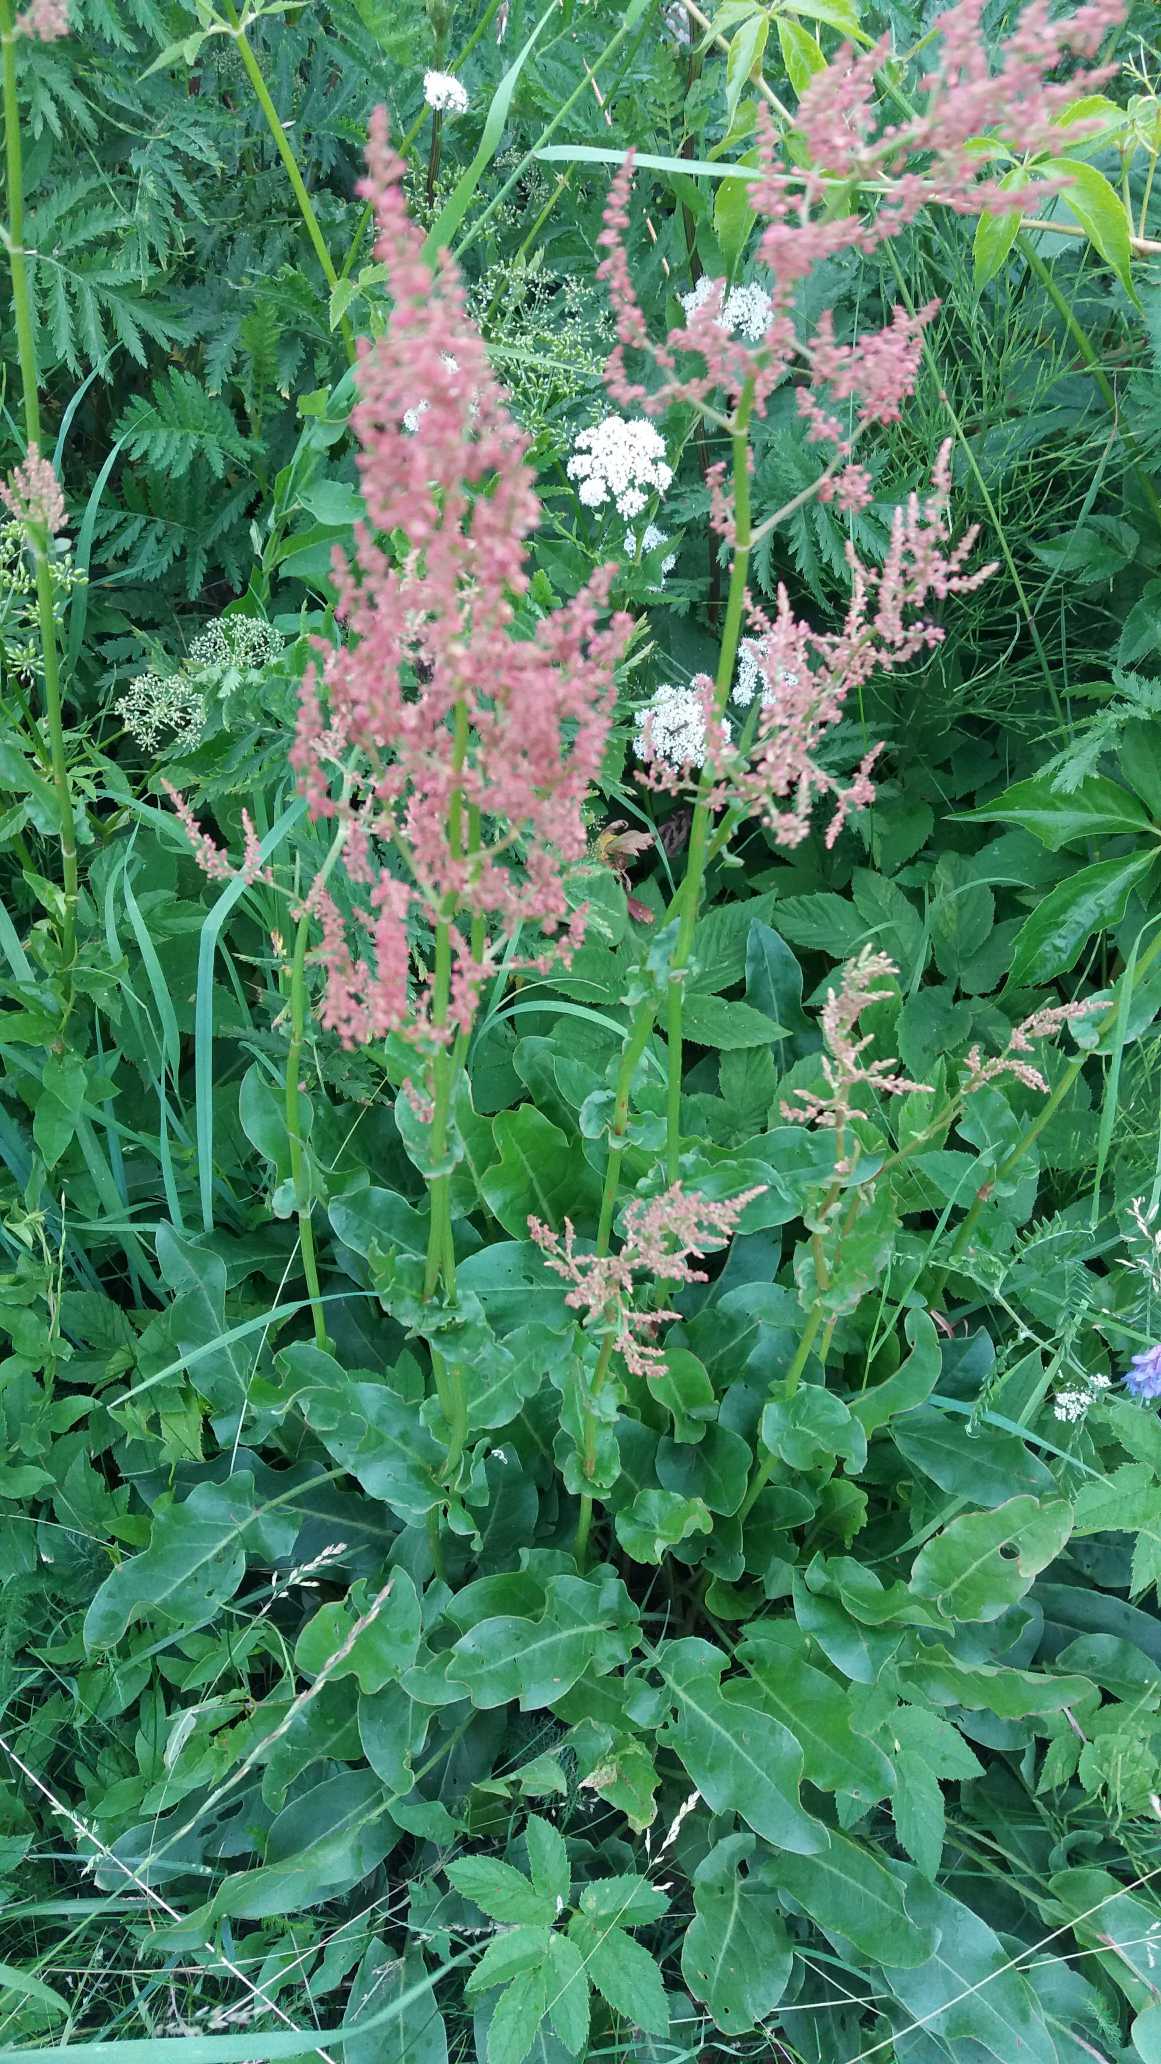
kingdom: Plantae
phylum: Tracheophyta
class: Magnoliopsida
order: Caryophyllales
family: Polygonaceae
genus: Rumex
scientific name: Rumex thyrsiflorus
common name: Dusk-syre
